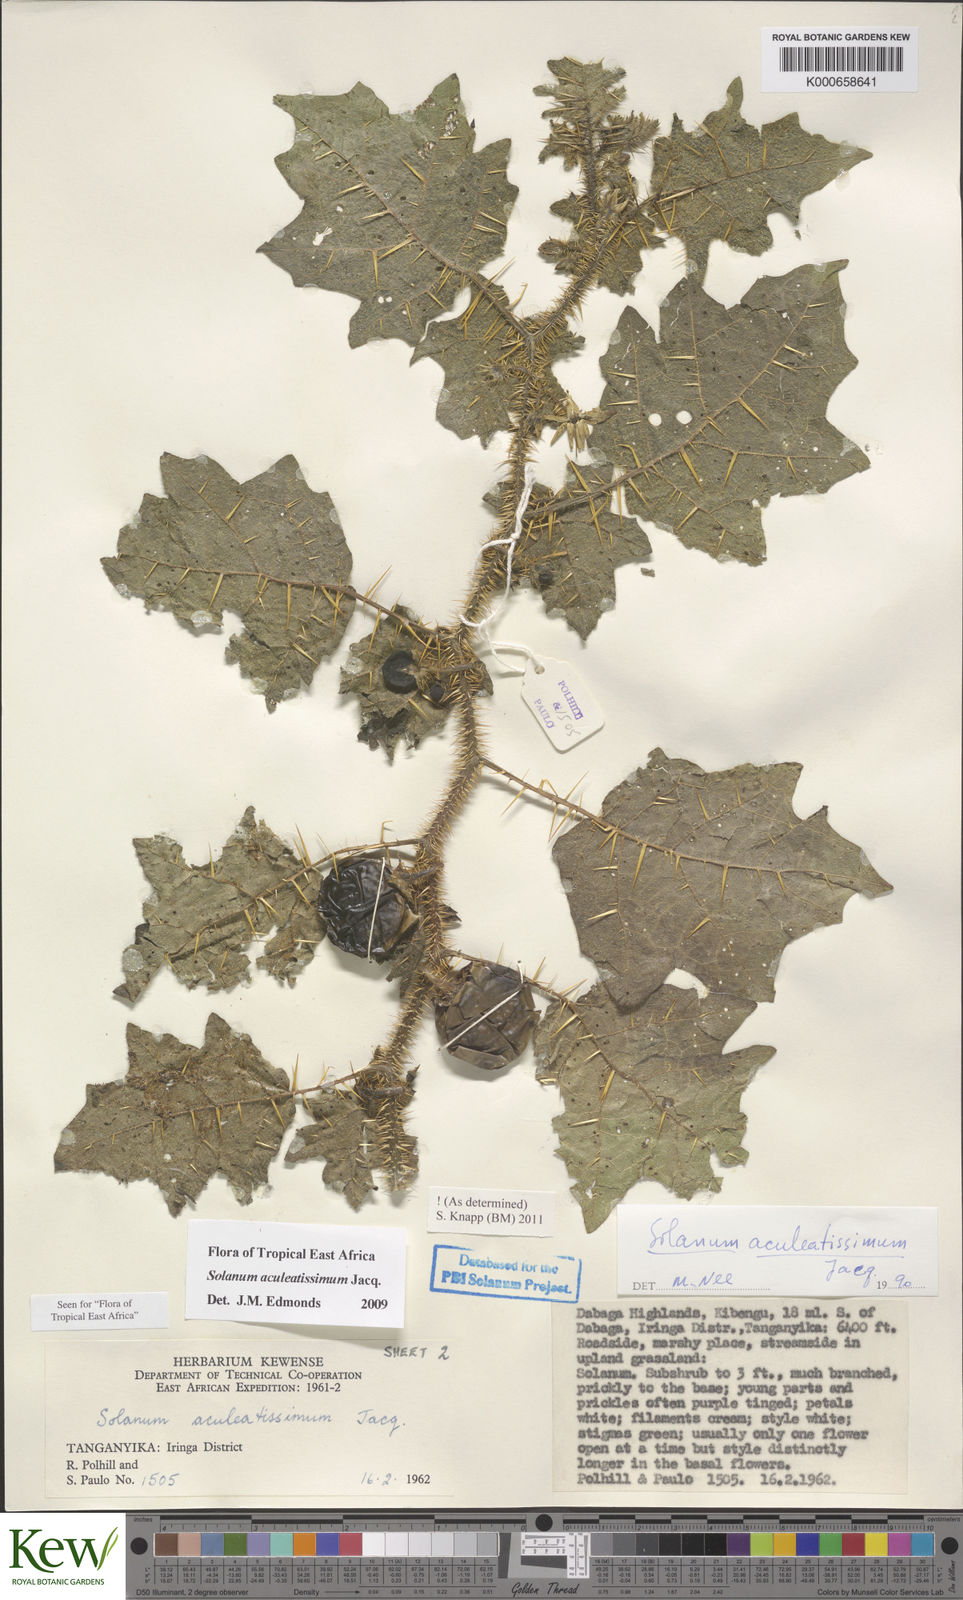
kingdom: Plantae
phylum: Tracheophyta
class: Magnoliopsida
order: Solanales
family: Solanaceae
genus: Solanum
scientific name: Solanum aculeatissimum
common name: Dutch eggplant
